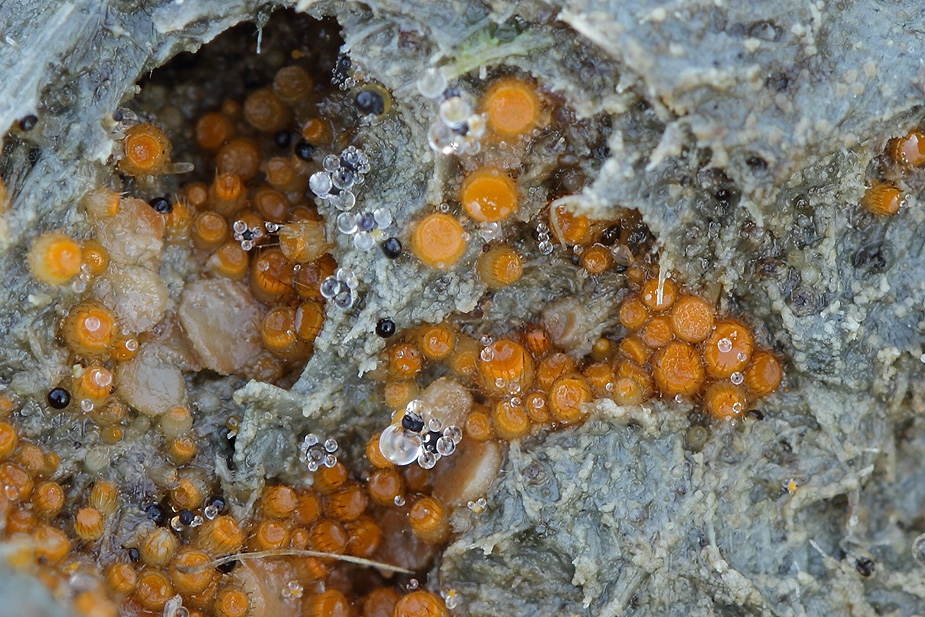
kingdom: Fungi
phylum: Ascomycota
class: Pezizomycetes
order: Pezizales
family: Pyronemataceae
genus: Cheilymenia
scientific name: Cheilymenia stercorea
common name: gødnings-hårbæger
